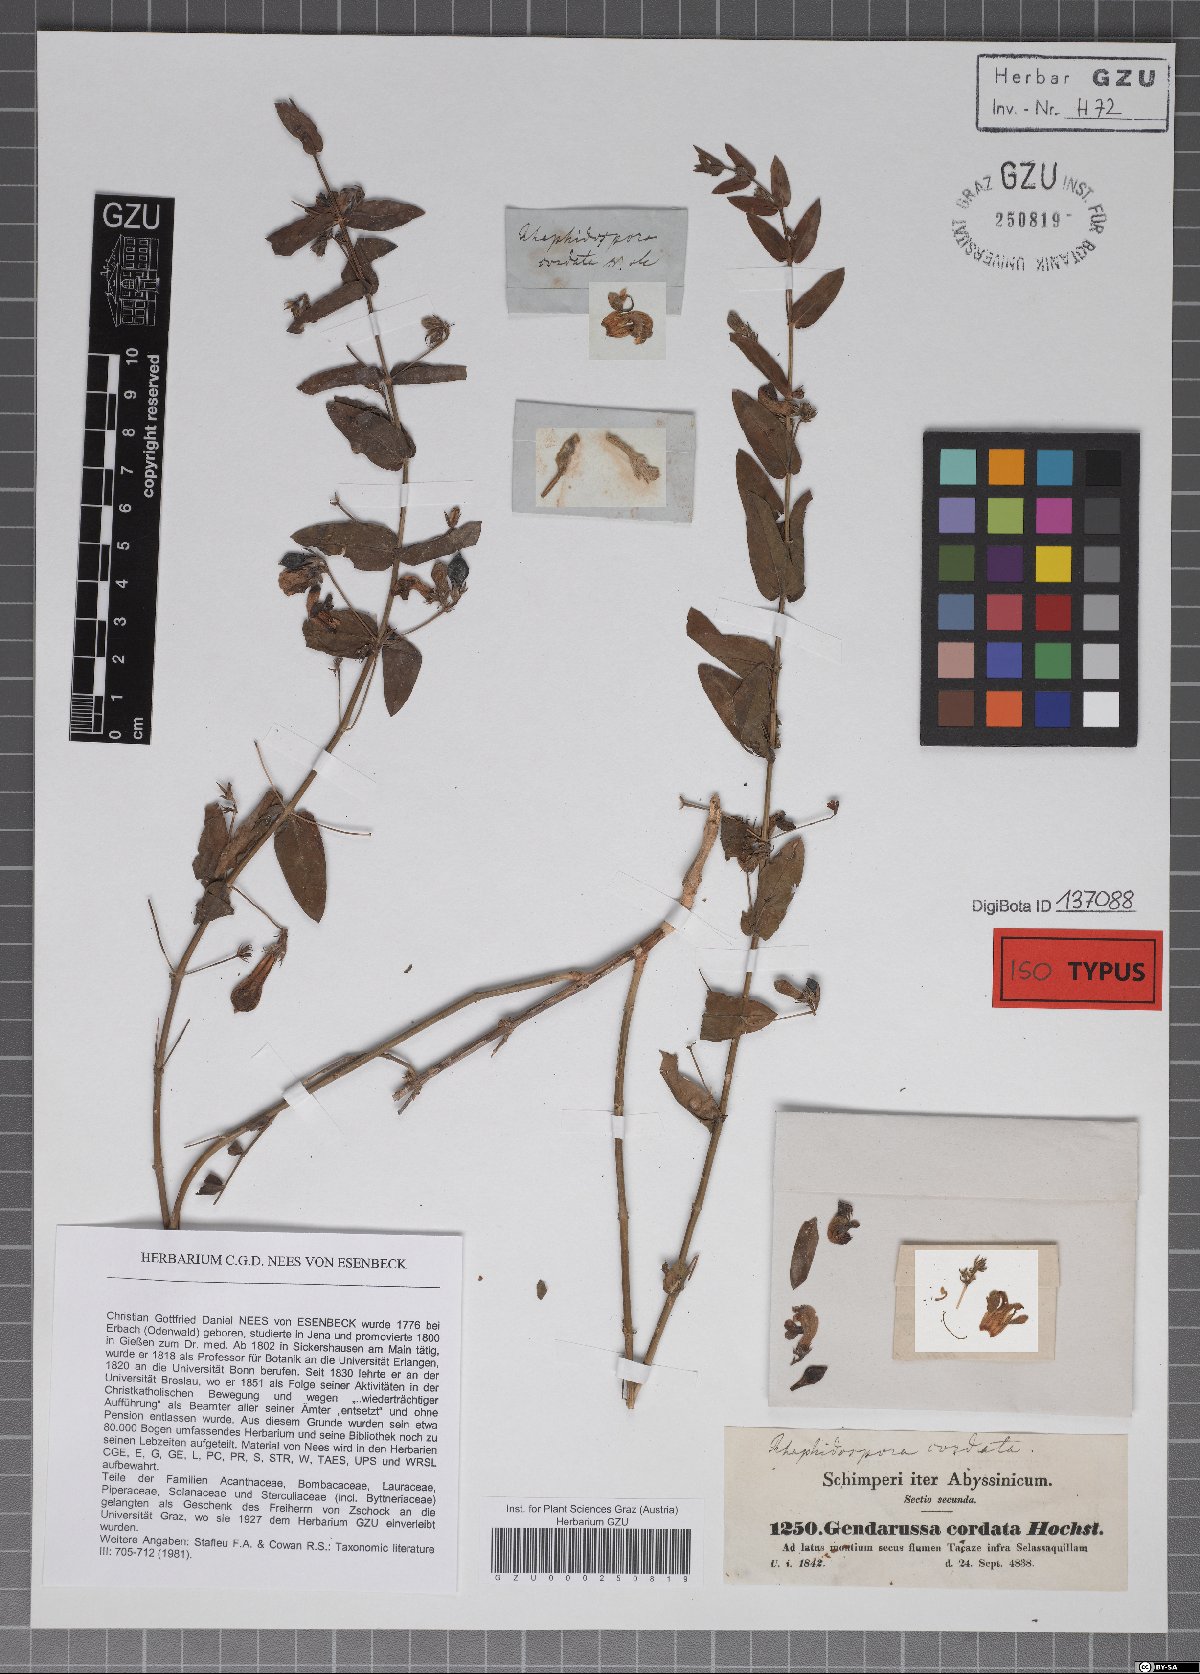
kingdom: Plantae
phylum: Tracheophyta
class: Magnoliopsida
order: Lamiales
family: Acanthaceae
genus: Justicia
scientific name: Justicia cordata
